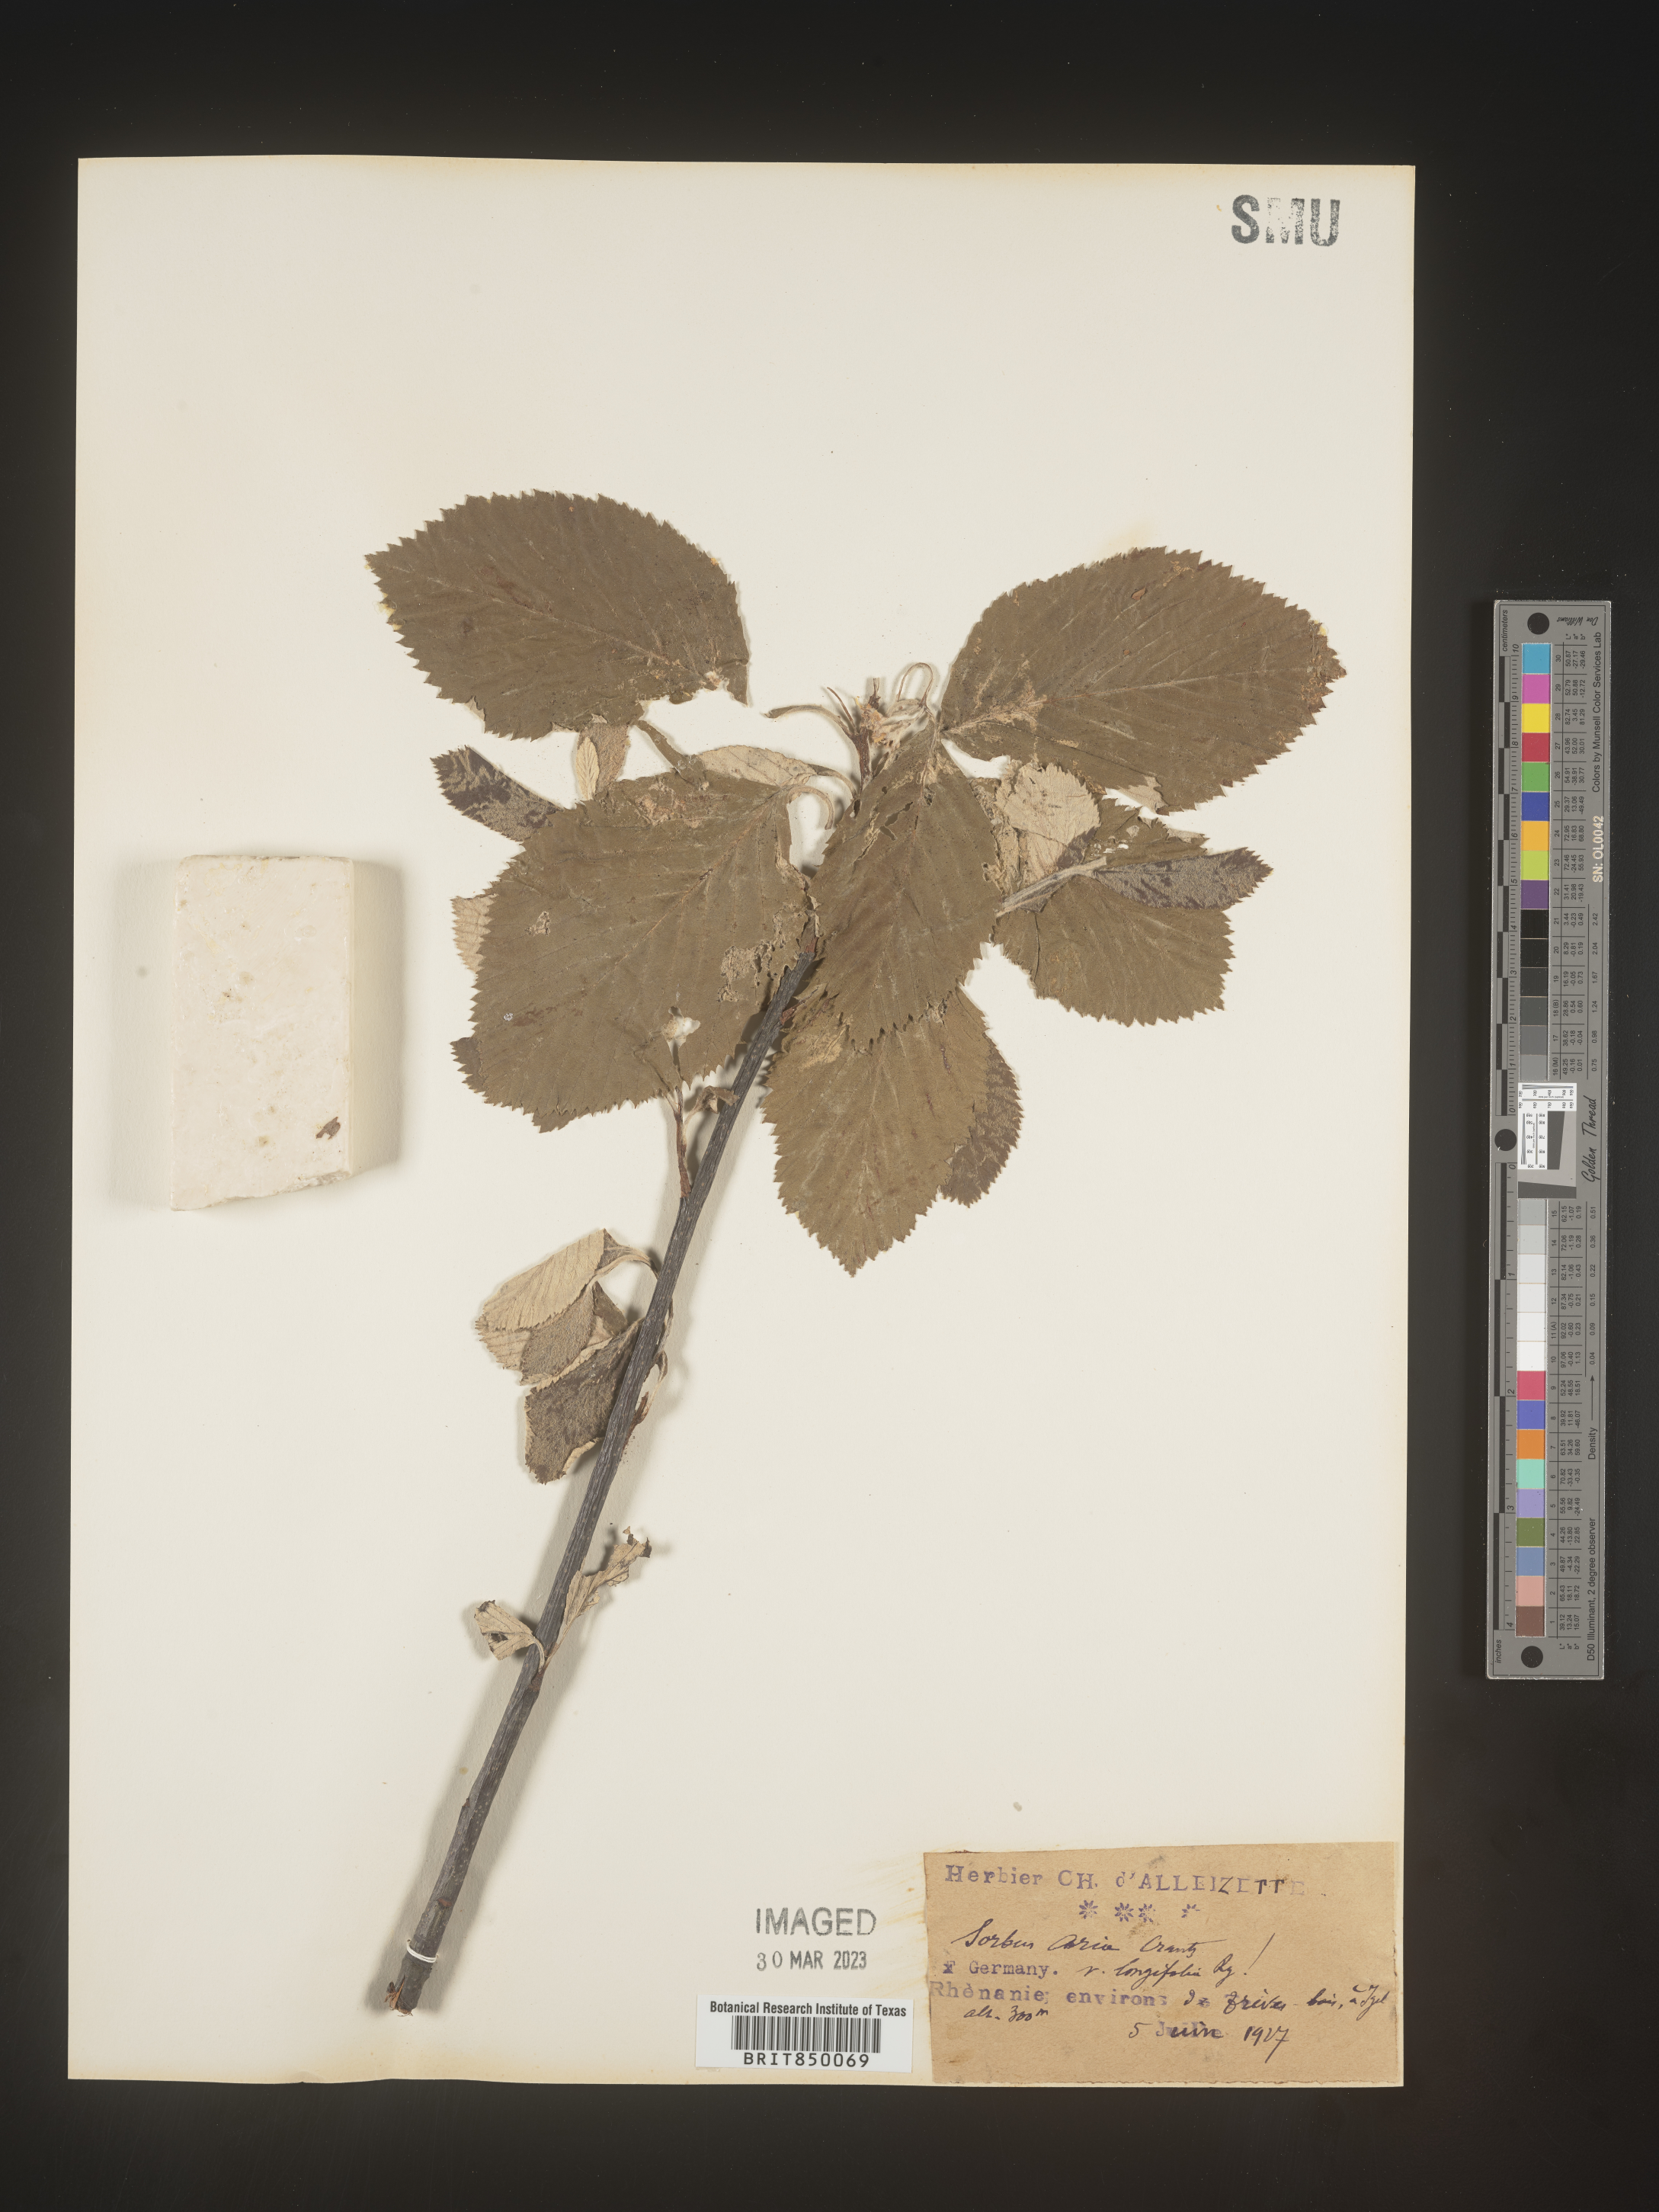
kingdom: Plantae
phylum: Tracheophyta
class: Magnoliopsida
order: Rosales
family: Rosaceae
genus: Sorbus
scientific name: Sorbus
